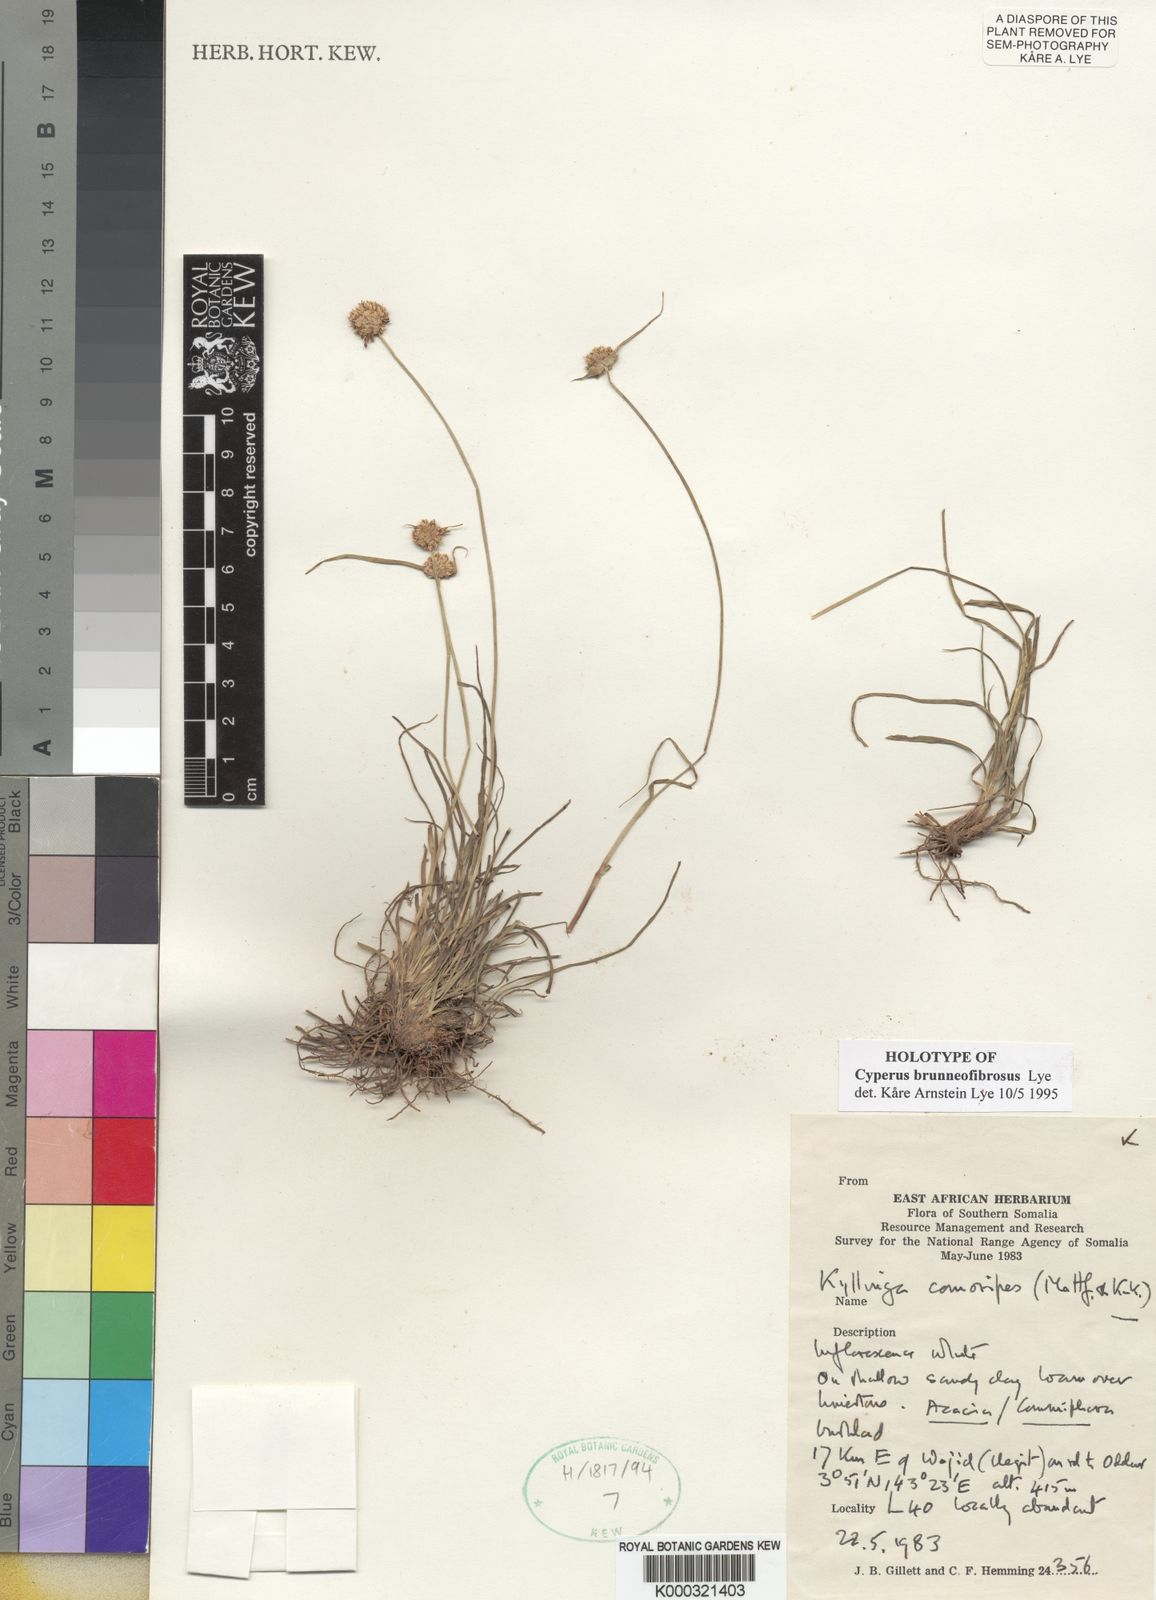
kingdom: Plantae
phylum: Tracheophyta
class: Liliopsida
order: Poales
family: Cyperaceae
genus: Cyperus
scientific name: Cyperus brunneofibrosus
